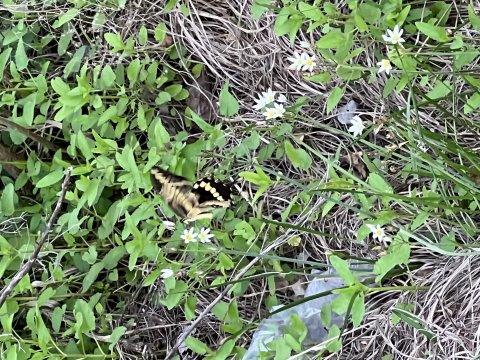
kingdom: Animalia
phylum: Arthropoda
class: Insecta
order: Lepidoptera
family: Papilionidae
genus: Papilio
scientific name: Papilio cresphontes
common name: Eastern Giant Swallowtail
